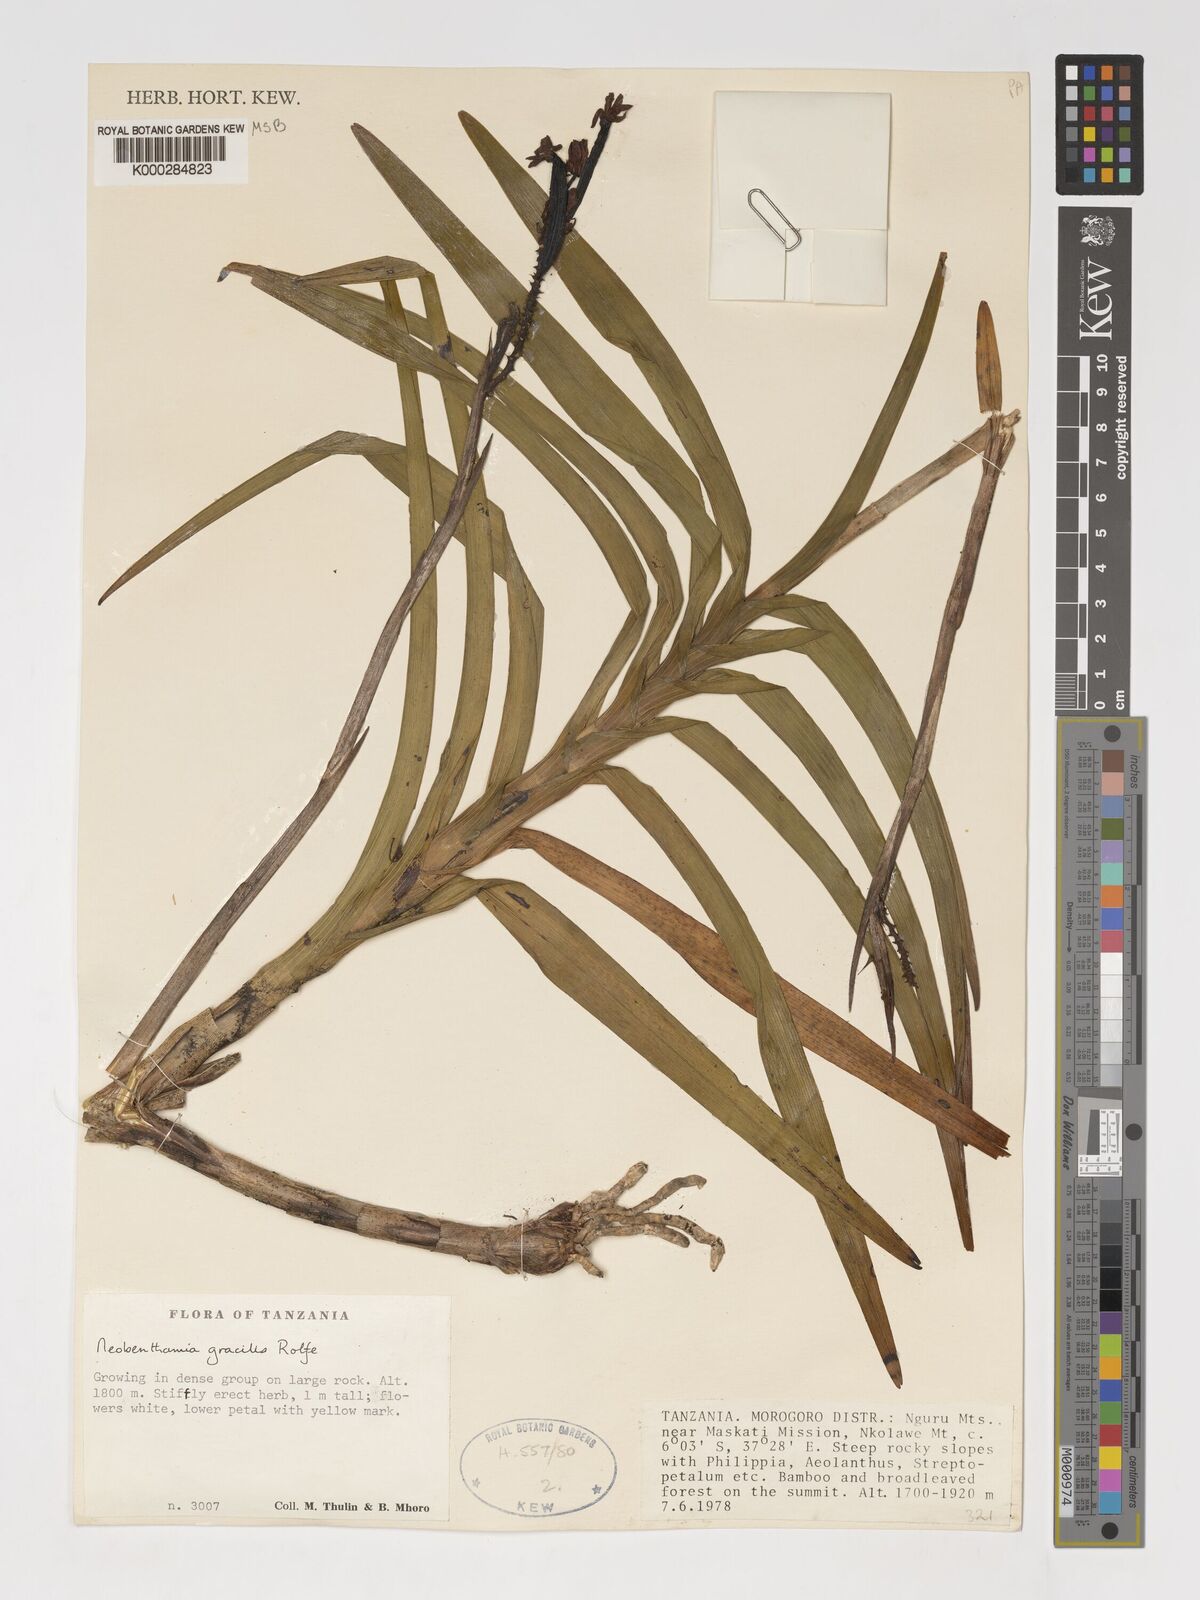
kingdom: Plantae
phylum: Tracheophyta
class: Liliopsida
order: Asparagales
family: Orchidaceae
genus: Polystachya
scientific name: Polystachya neobenthamia
